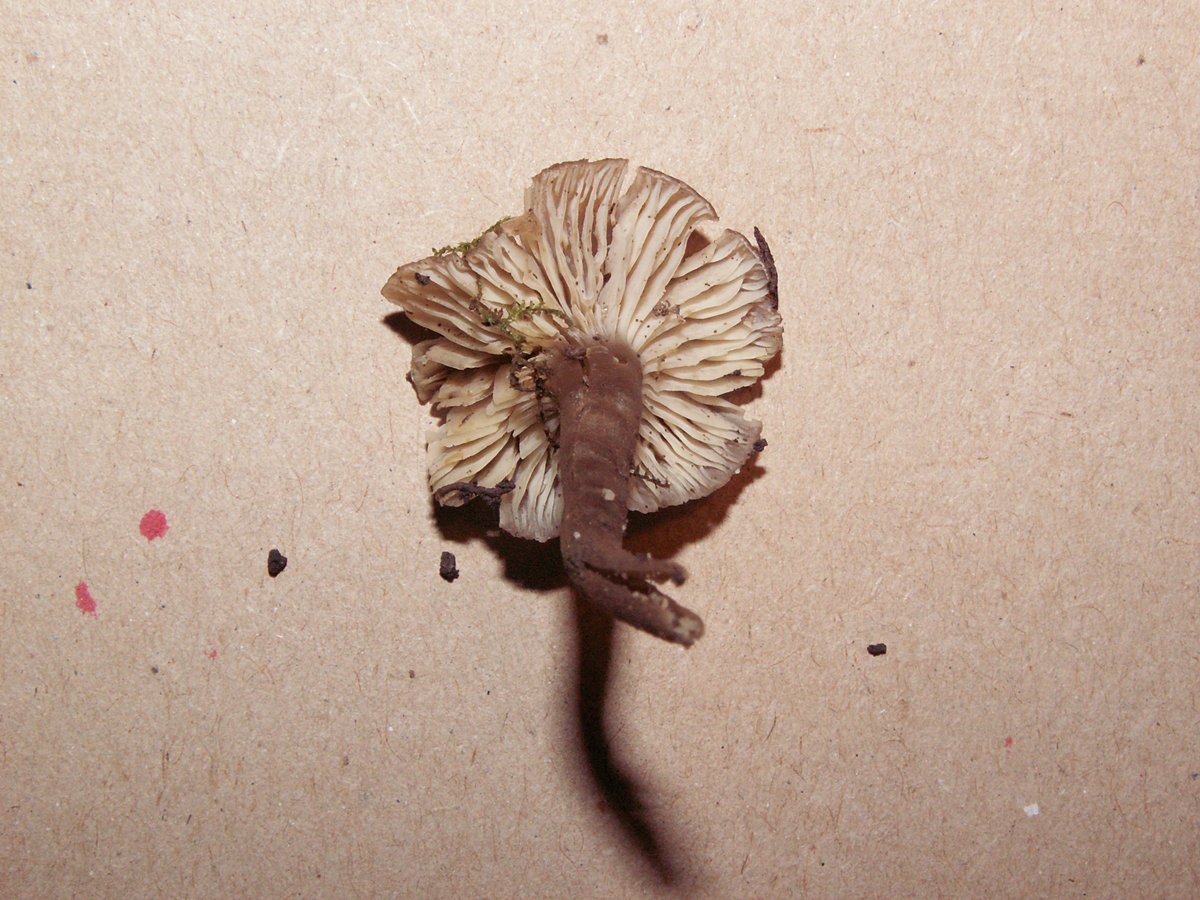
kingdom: Fungi
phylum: Basidiomycota
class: Agaricomycetes
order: Agaricales
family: Clavariaceae
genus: Camarophyllopsis
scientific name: Camarophyllopsis atrovelutina
